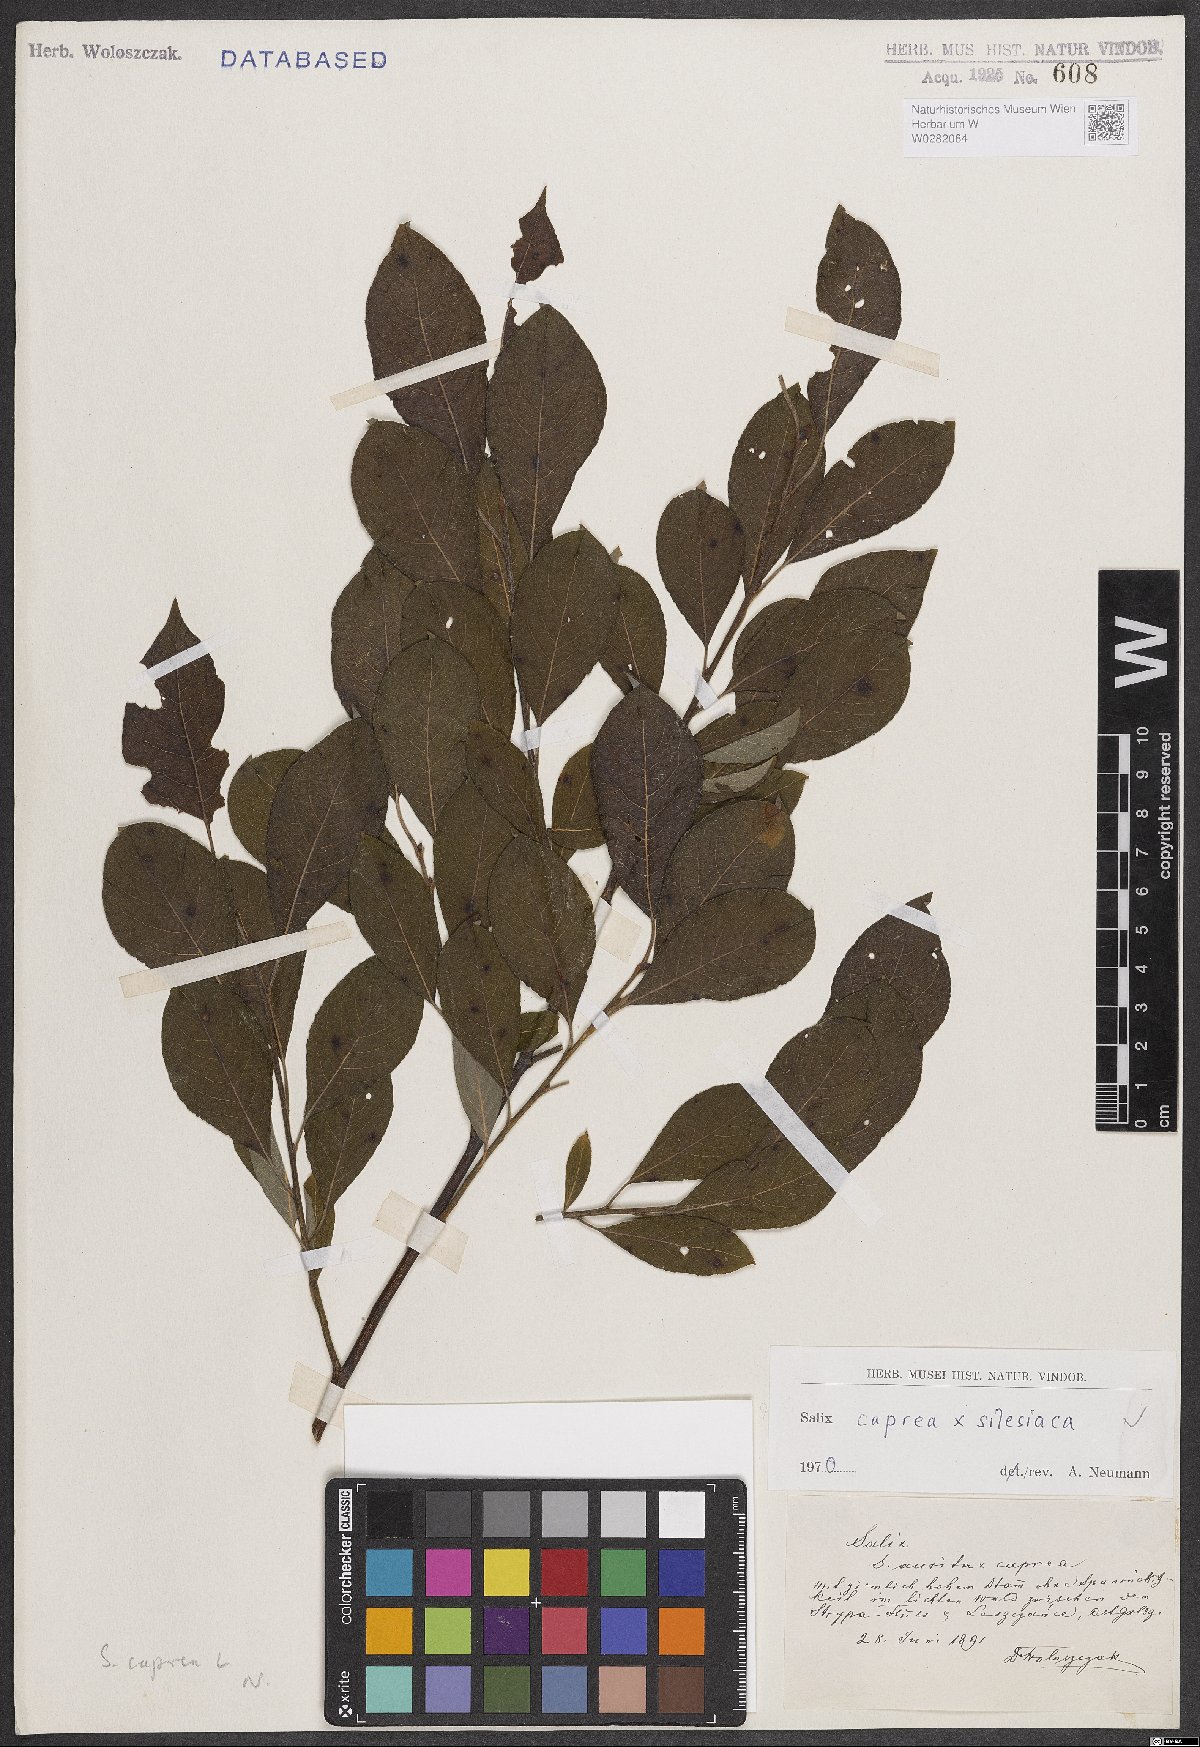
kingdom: Plantae
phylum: Tracheophyta
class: Magnoliopsida
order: Malpighiales
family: Salicaceae
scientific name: Salicaceae
